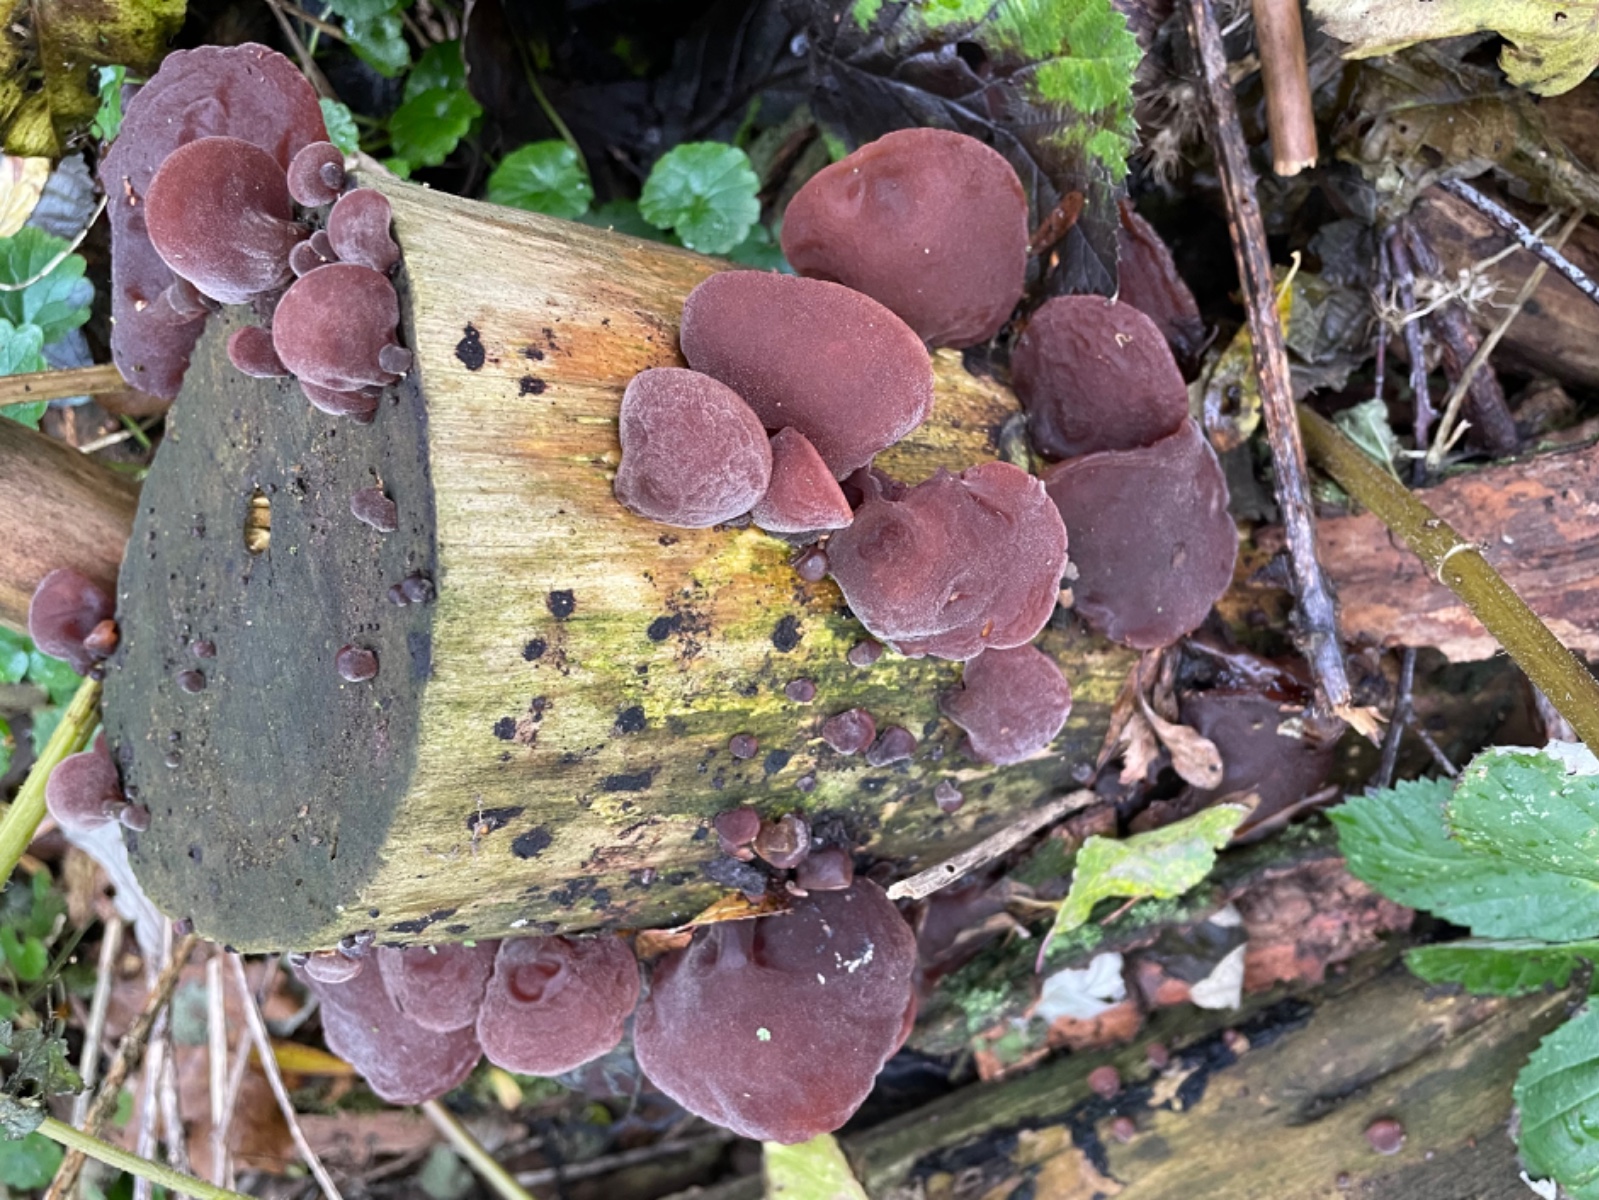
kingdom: Fungi
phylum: Basidiomycota
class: Agaricomycetes
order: Auriculariales
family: Auriculariaceae
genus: Auricularia
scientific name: Auricularia auricula-judae
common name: almindelig judasøre
